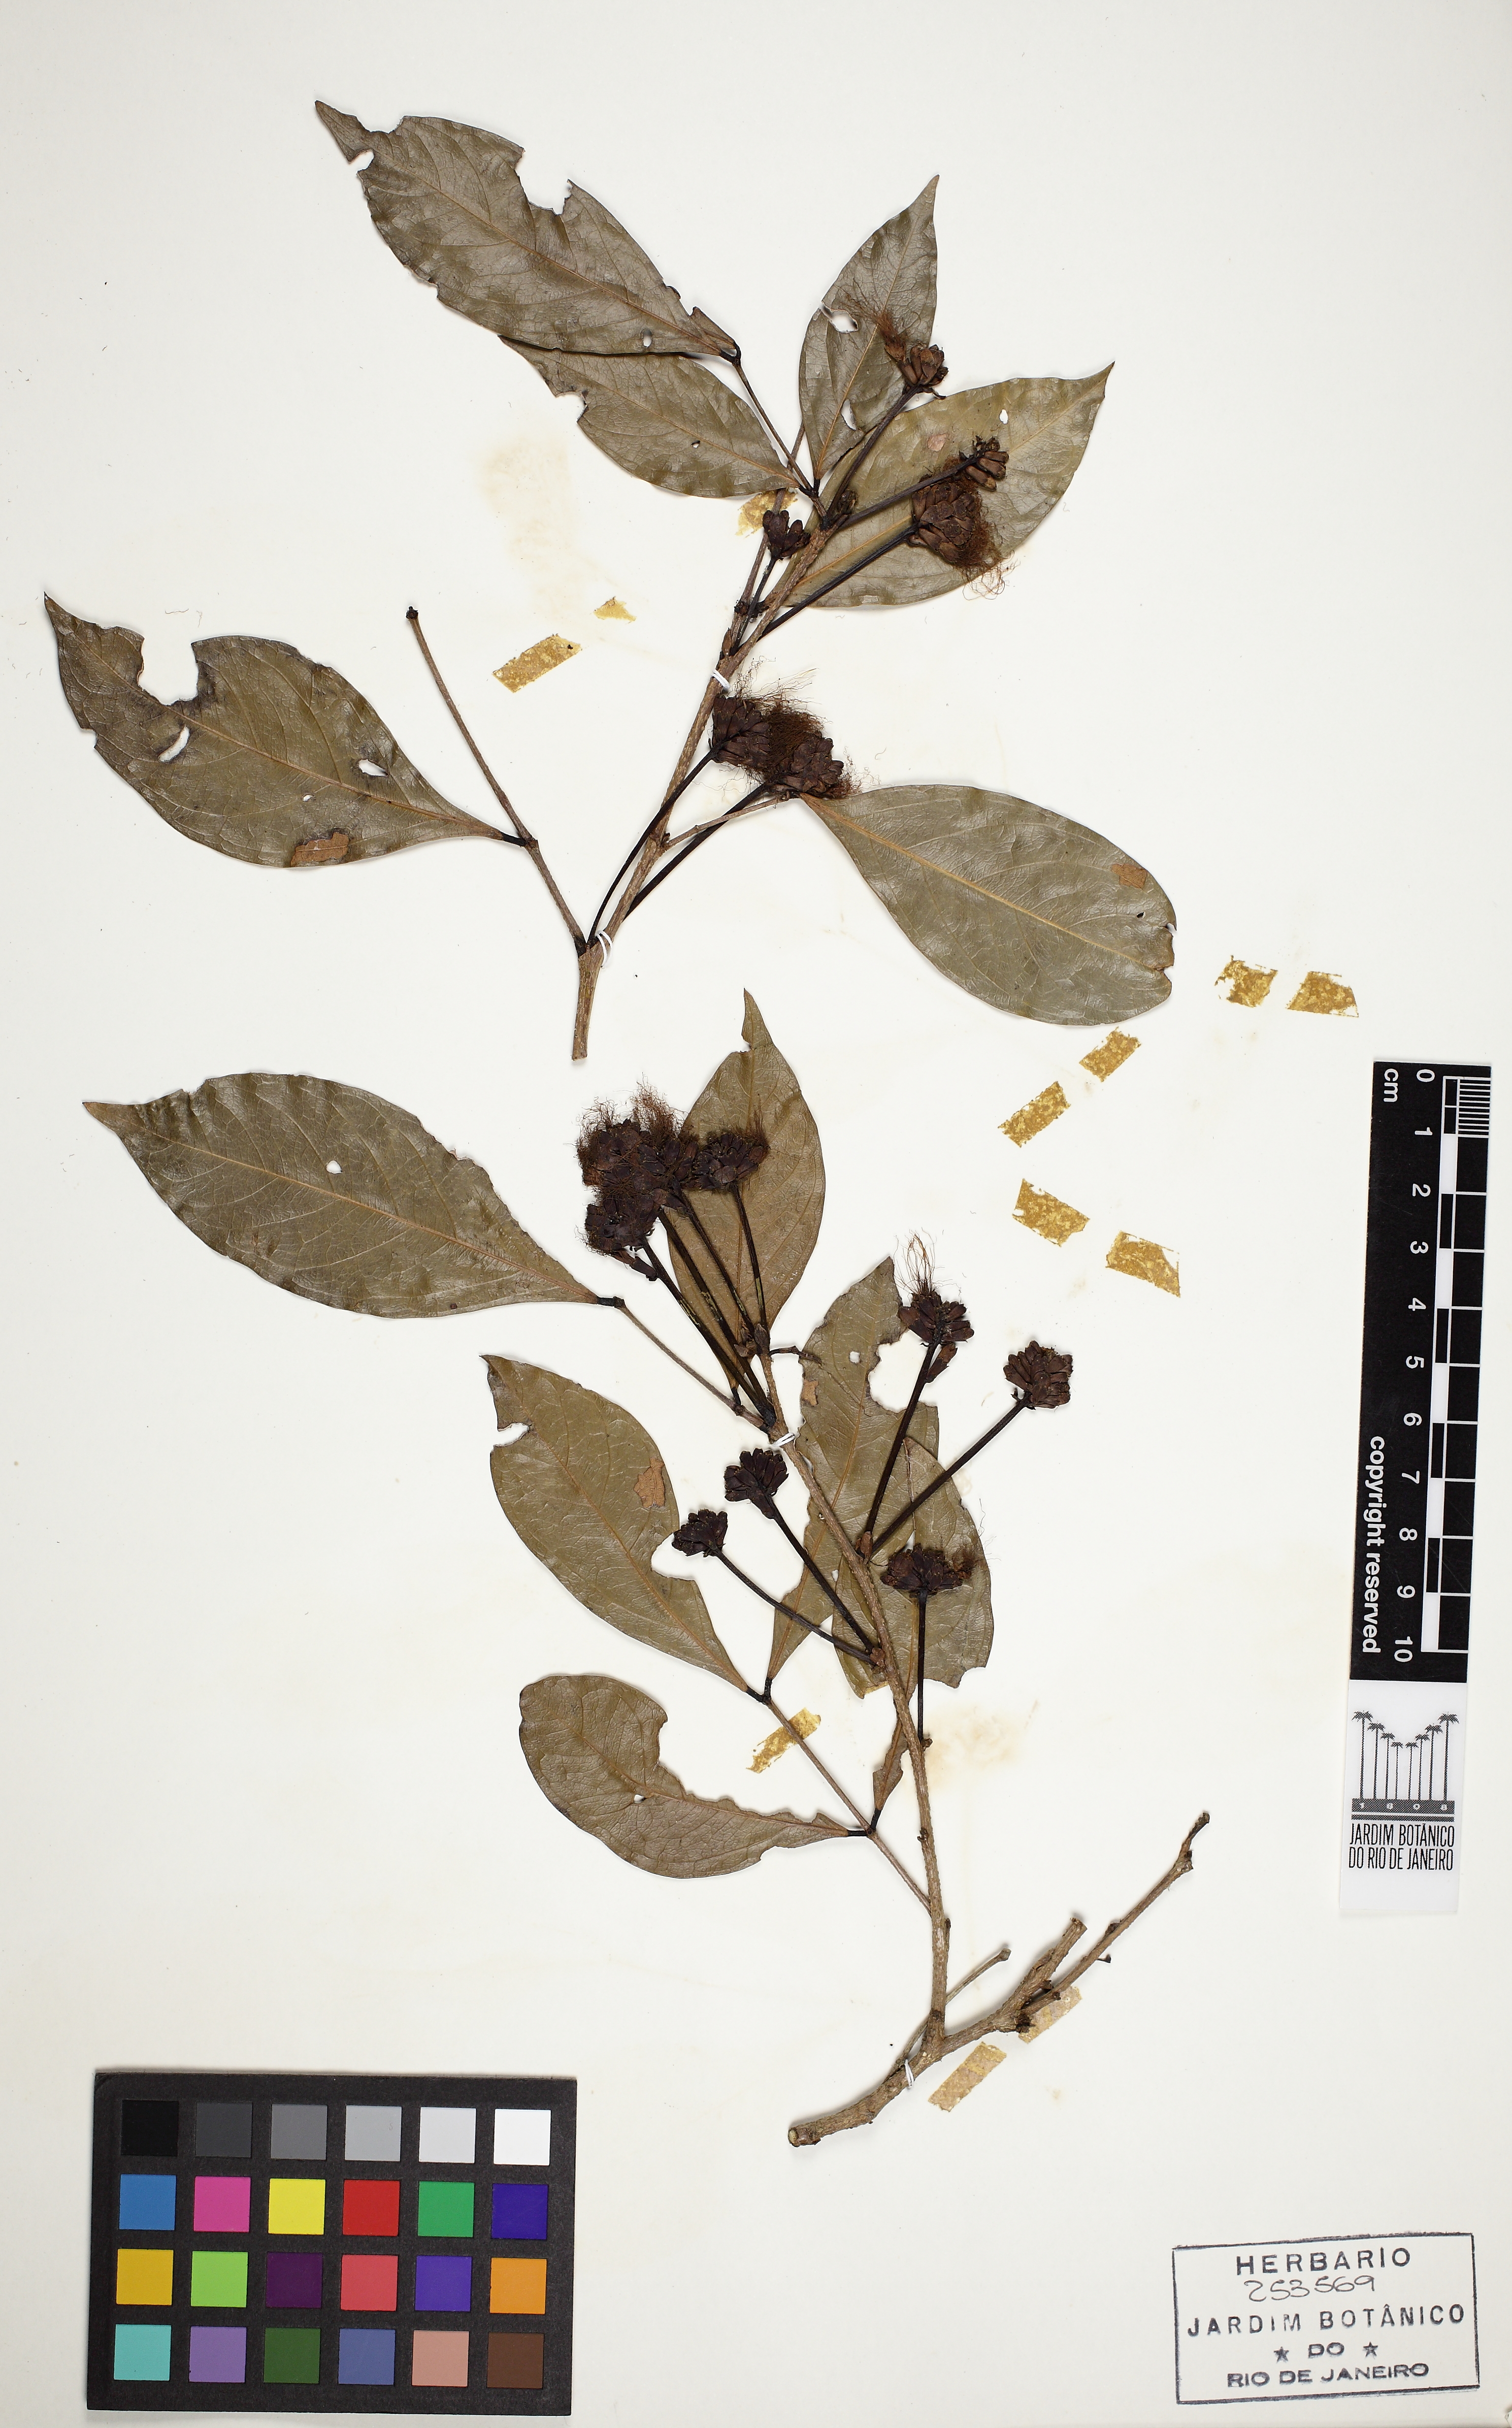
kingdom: Plantae
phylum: Tracheophyta
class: Magnoliopsida
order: Fabales
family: Fabaceae
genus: Inga
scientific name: Inga capitata
